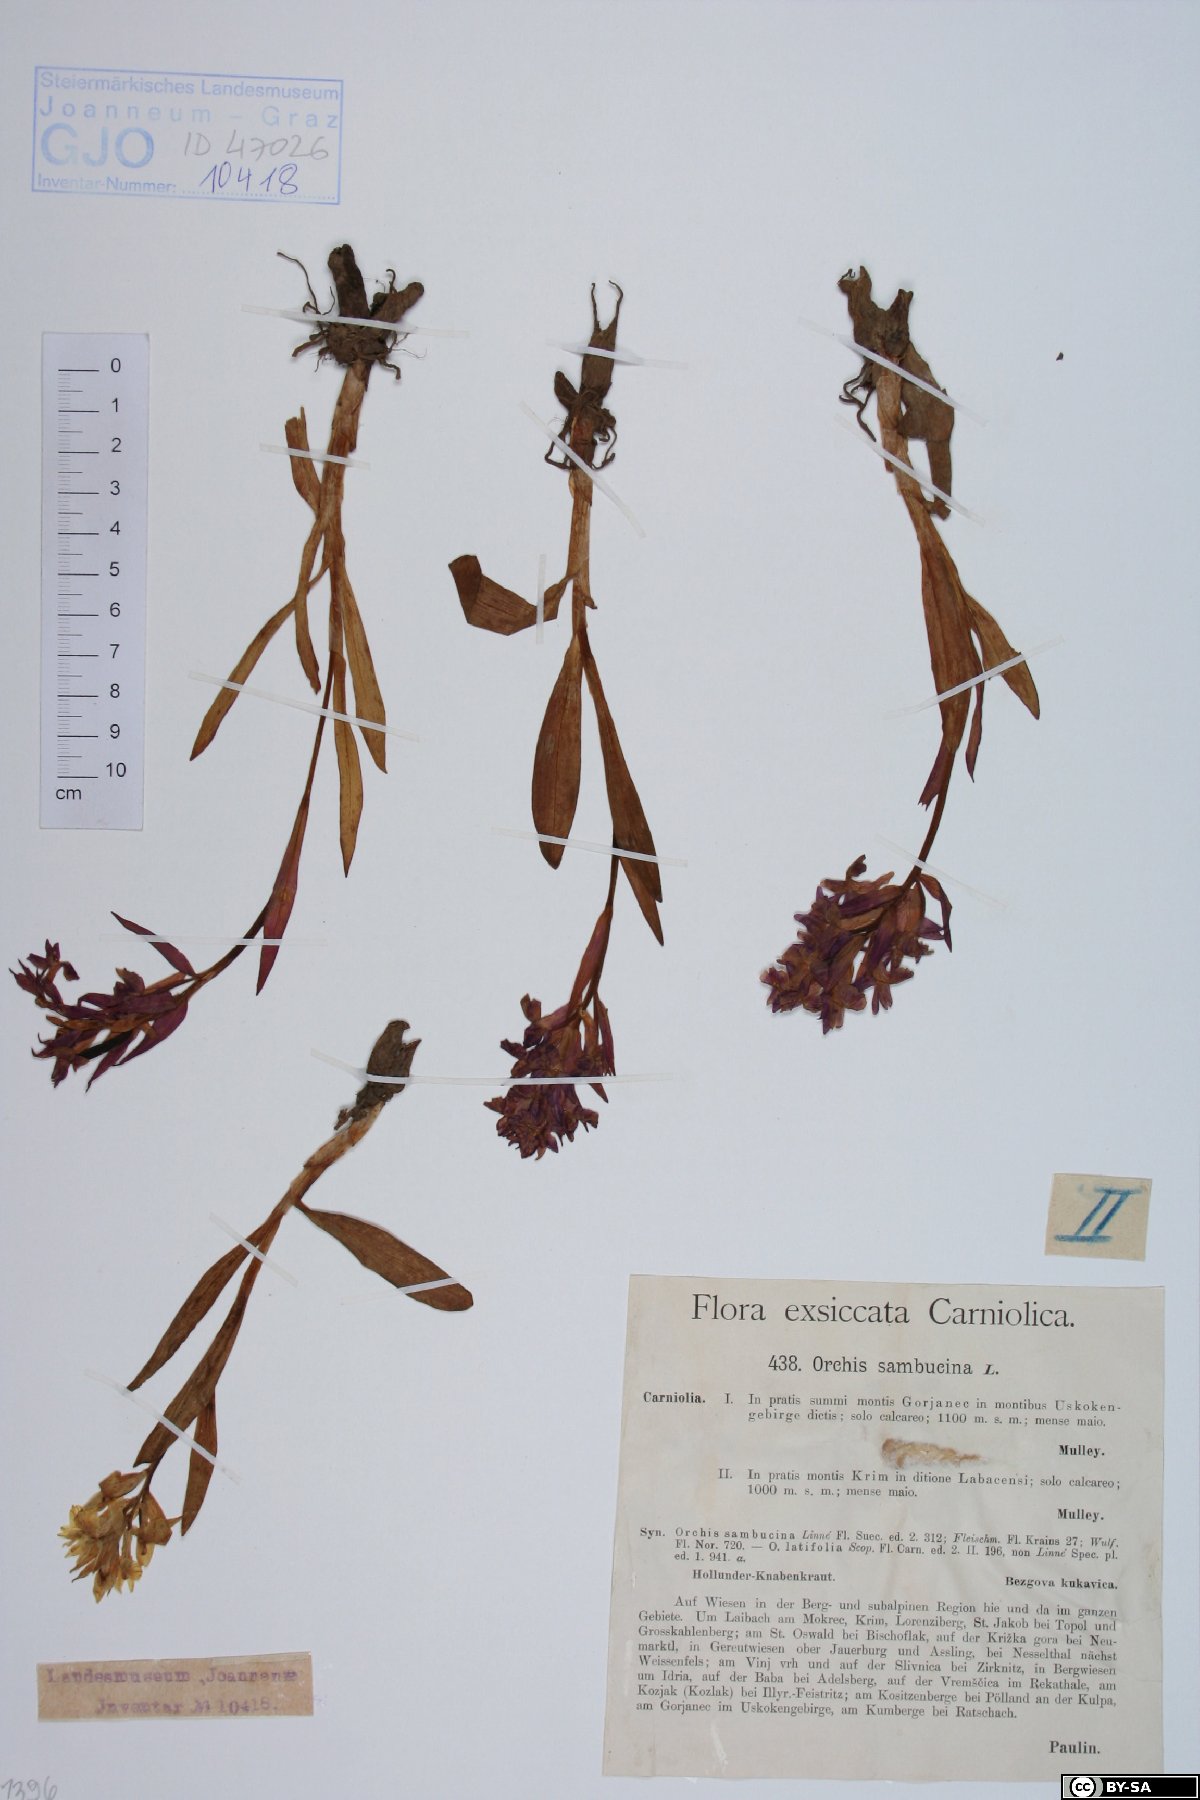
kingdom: Plantae
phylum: Tracheophyta
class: Liliopsida
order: Asparagales
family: Orchidaceae
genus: Dactylorhiza
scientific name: Dactylorhiza sambucina
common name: Elder-flowered orchid
